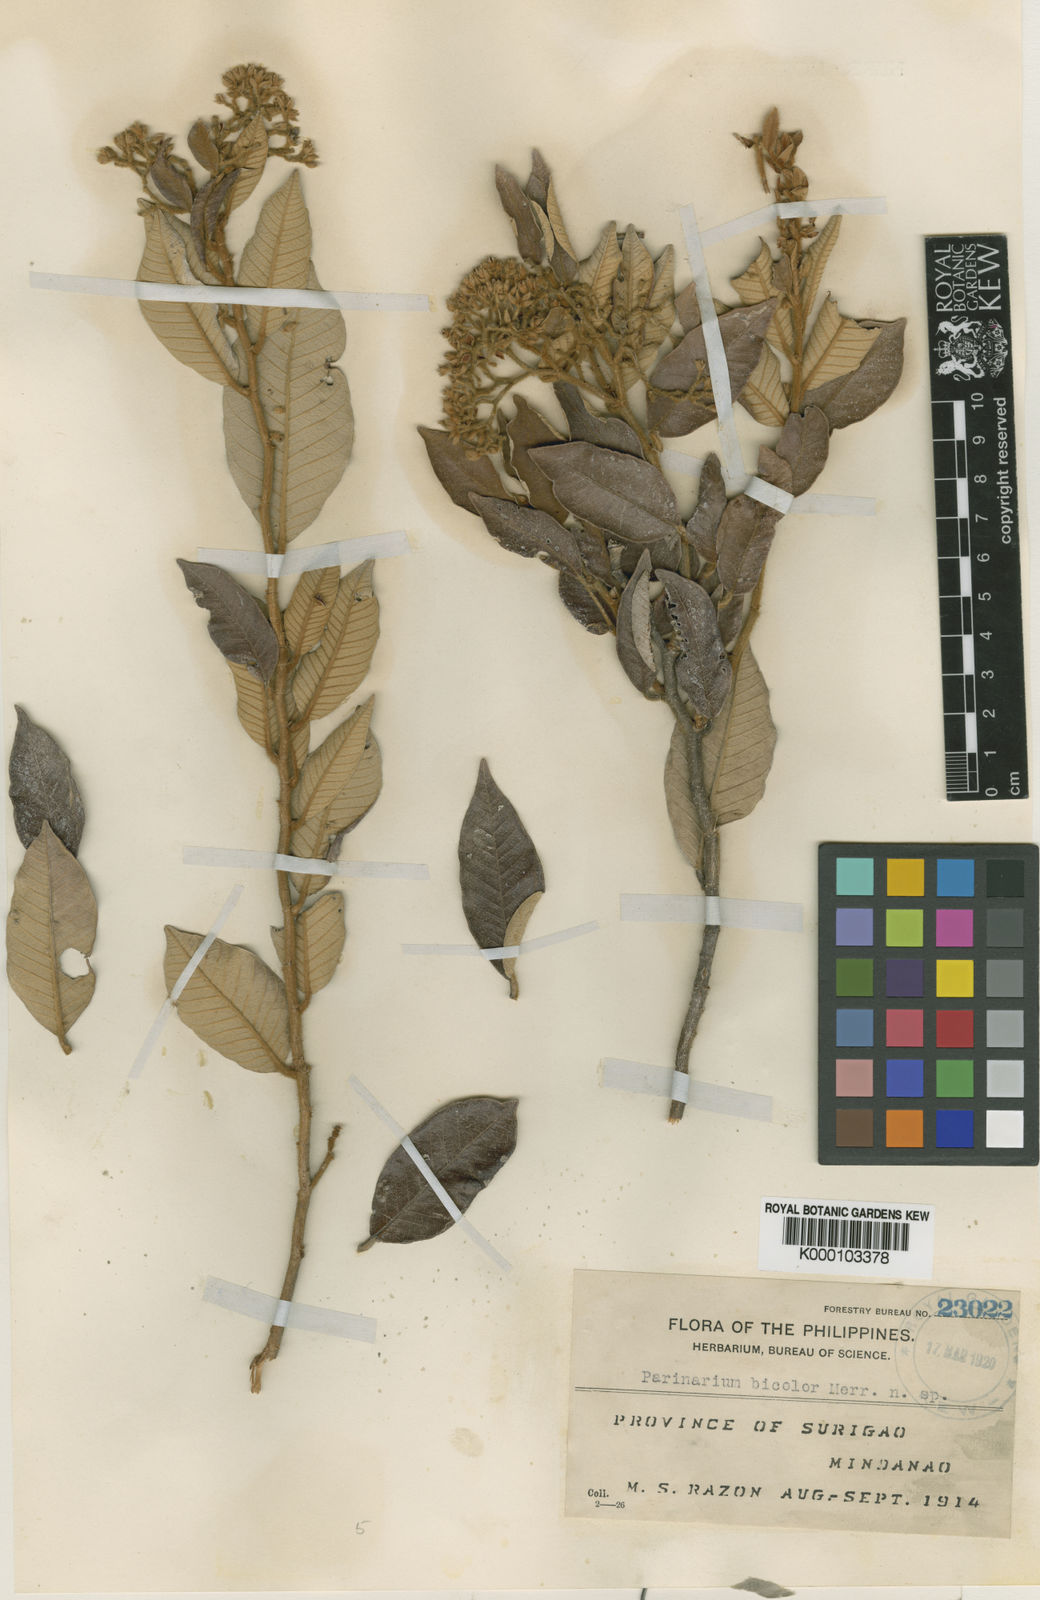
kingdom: Plantae
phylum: Tracheophyta
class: Magnoliopsida
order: Malpighiales
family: Chrysobalanaceae
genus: Parinari
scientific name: Parinari costata
